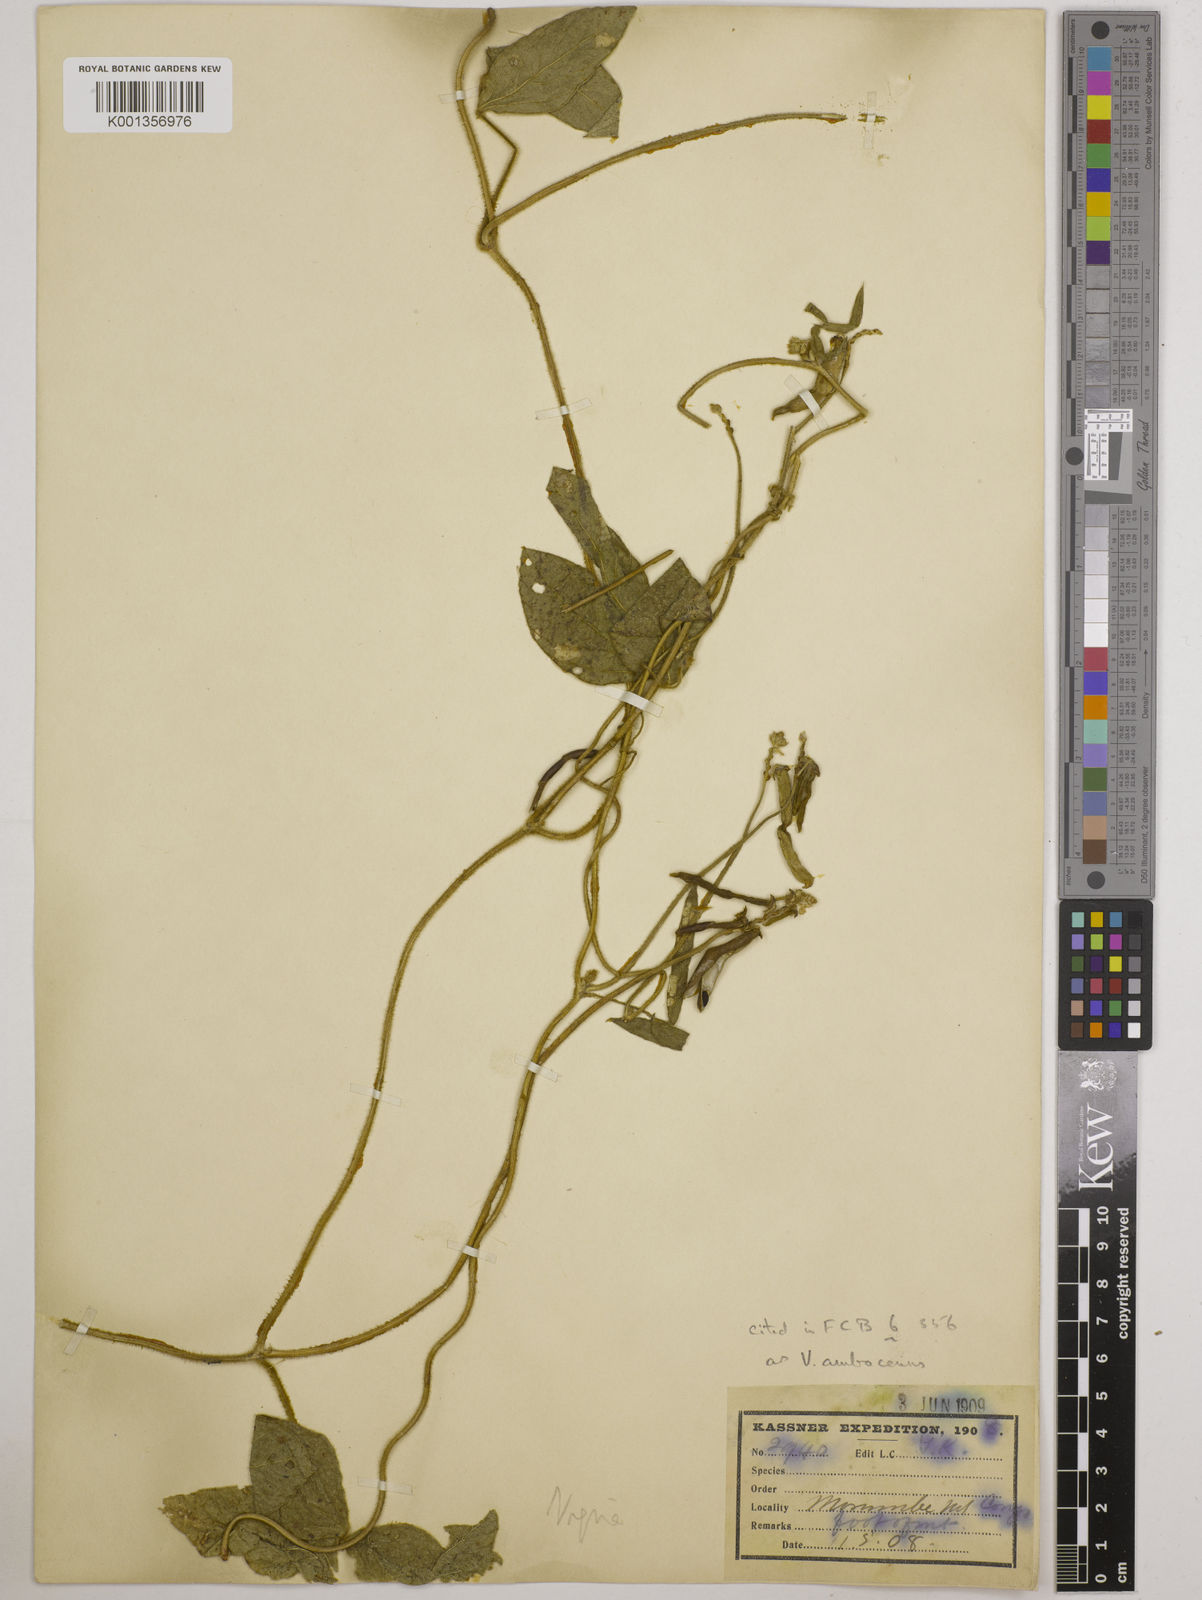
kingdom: Plantae
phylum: Tracheophyta
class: Magnoliopsida
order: Fabales
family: Fabaceae
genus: Vigna
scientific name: Vigna ambacensis
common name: Tsarkiyan zomo
